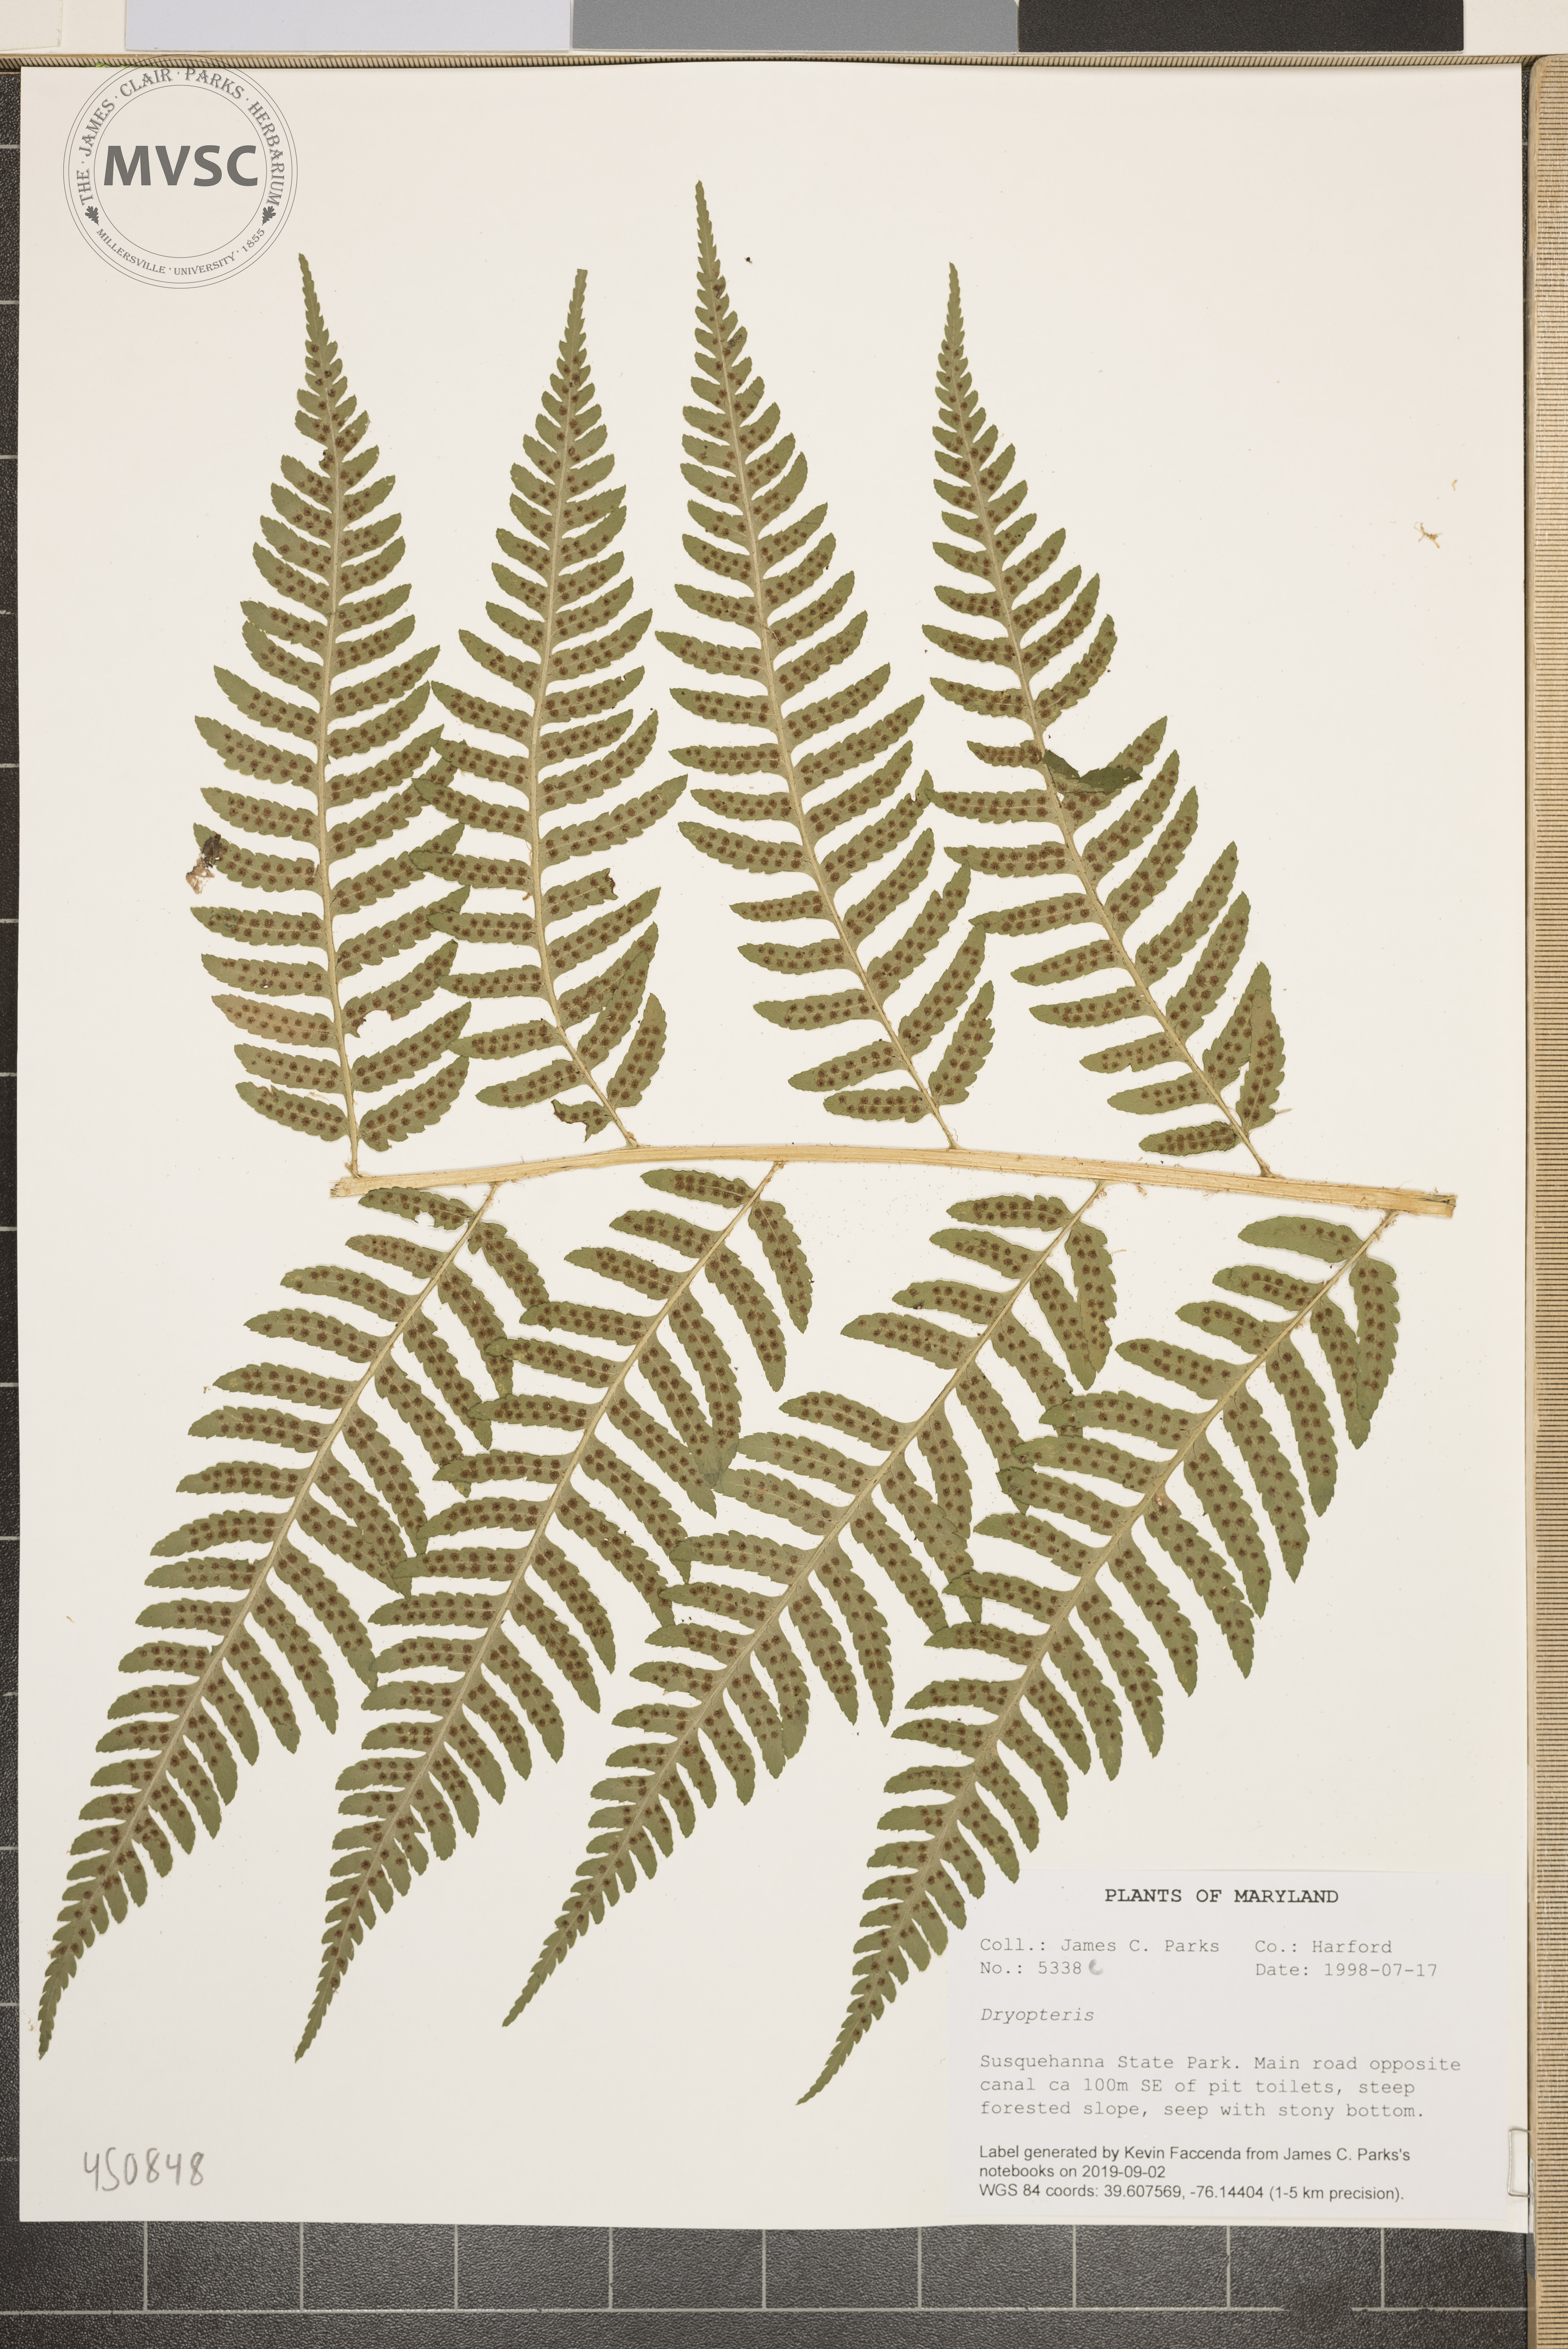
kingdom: Plantae
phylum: Tracheophyta
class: Polypodiopsida
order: Polypodiales
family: Dryopteridaceae
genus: Dryopteris
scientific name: Dryopteris celsa
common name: Log fern
